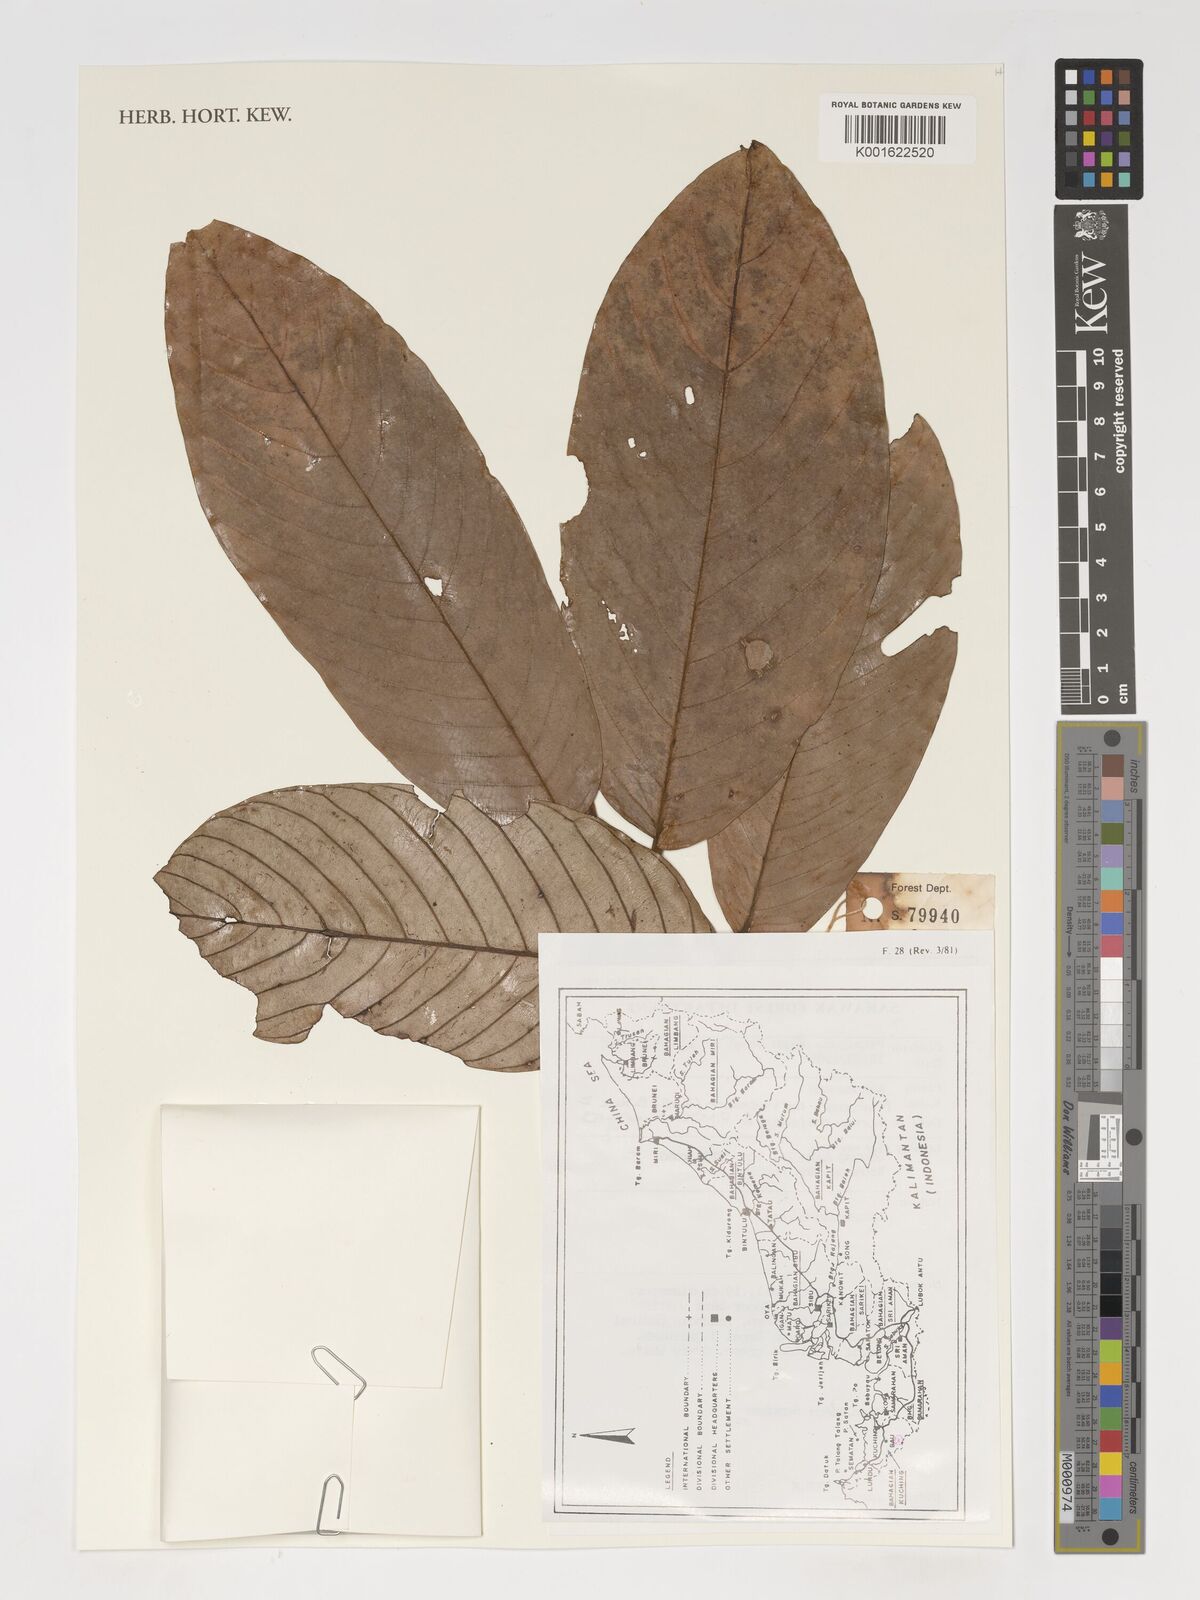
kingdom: Plantae
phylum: Tracheophyta
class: Magnoliopsida
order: Magnoliales
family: Annonaceae
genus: Enicosanthum
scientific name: Enicosanthum coriaceum
